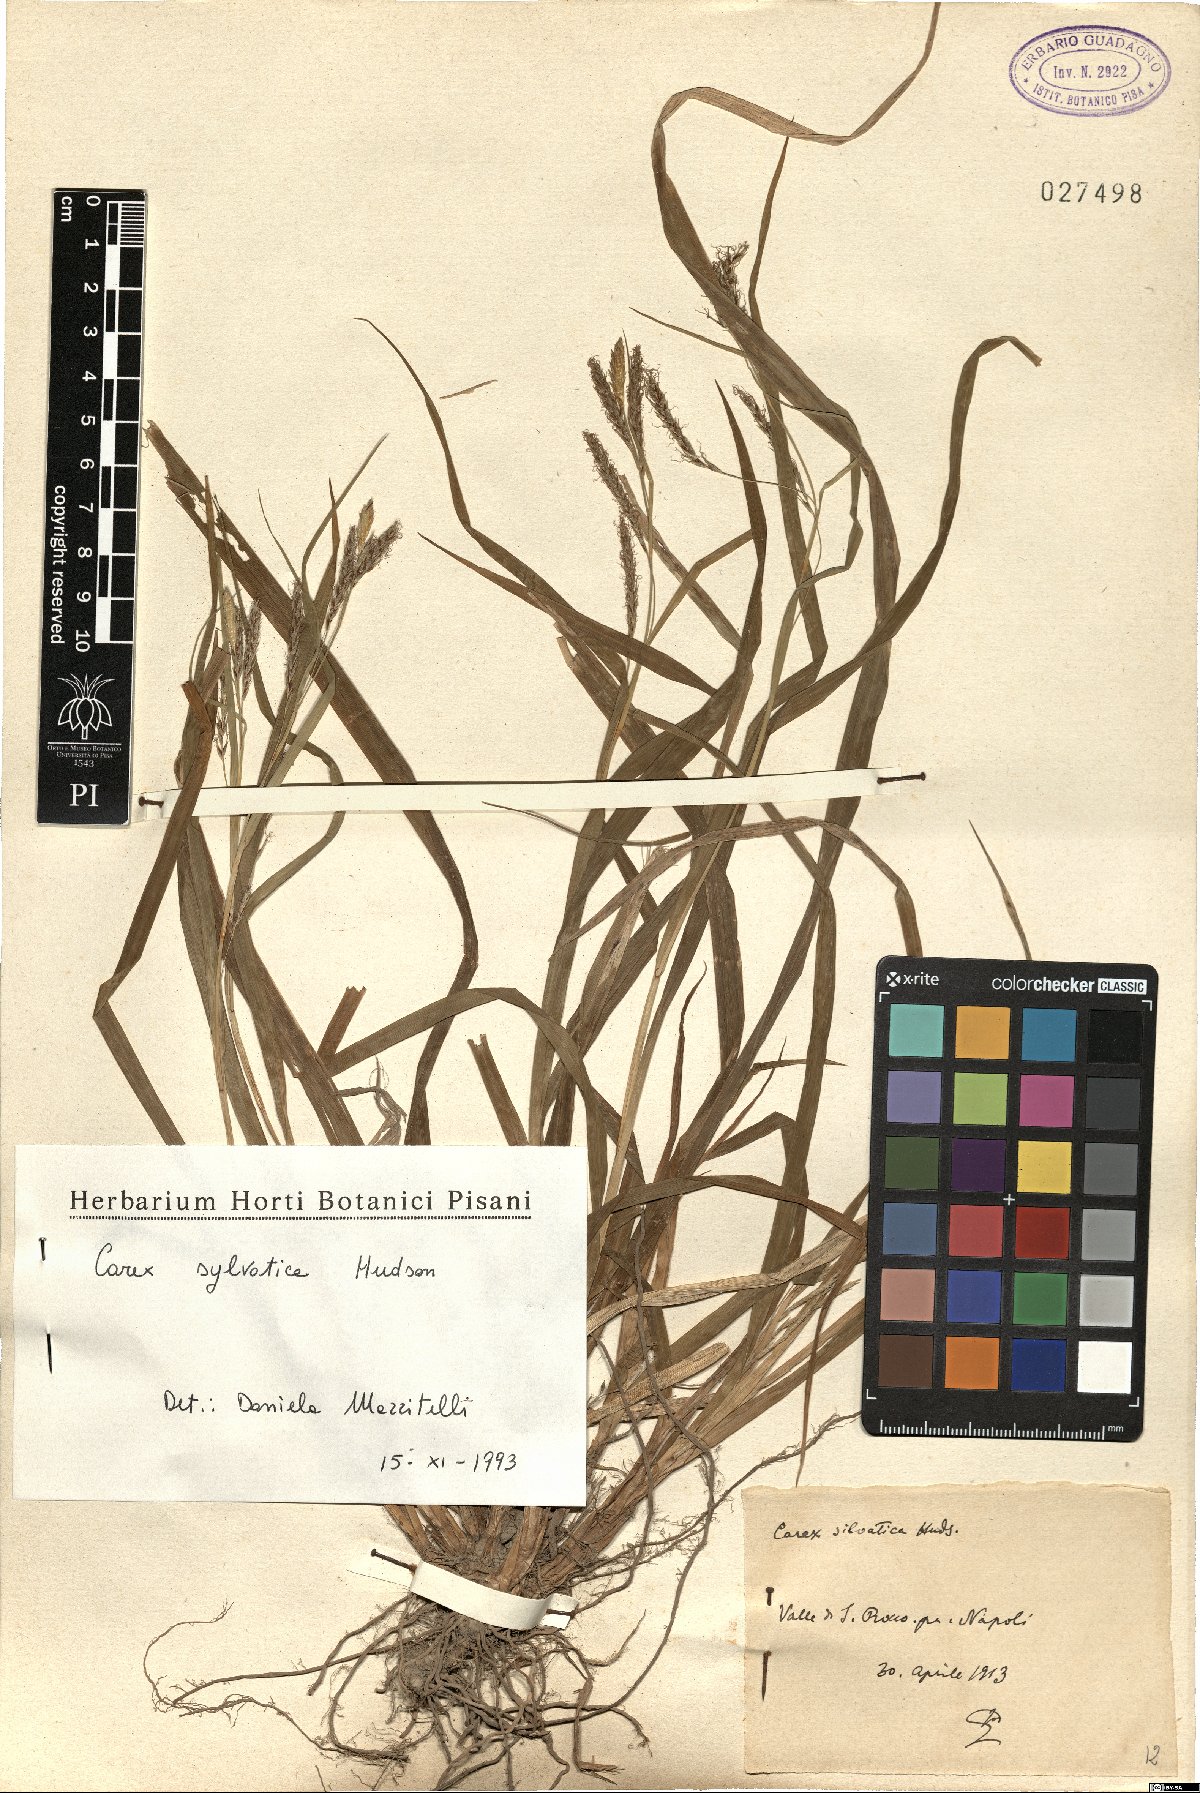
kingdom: Plantae
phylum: Tracheophyta
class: Liliopsida
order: Poales
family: Cyperaceae
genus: Carex
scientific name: Carex sylvatica
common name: Wood-sedge
